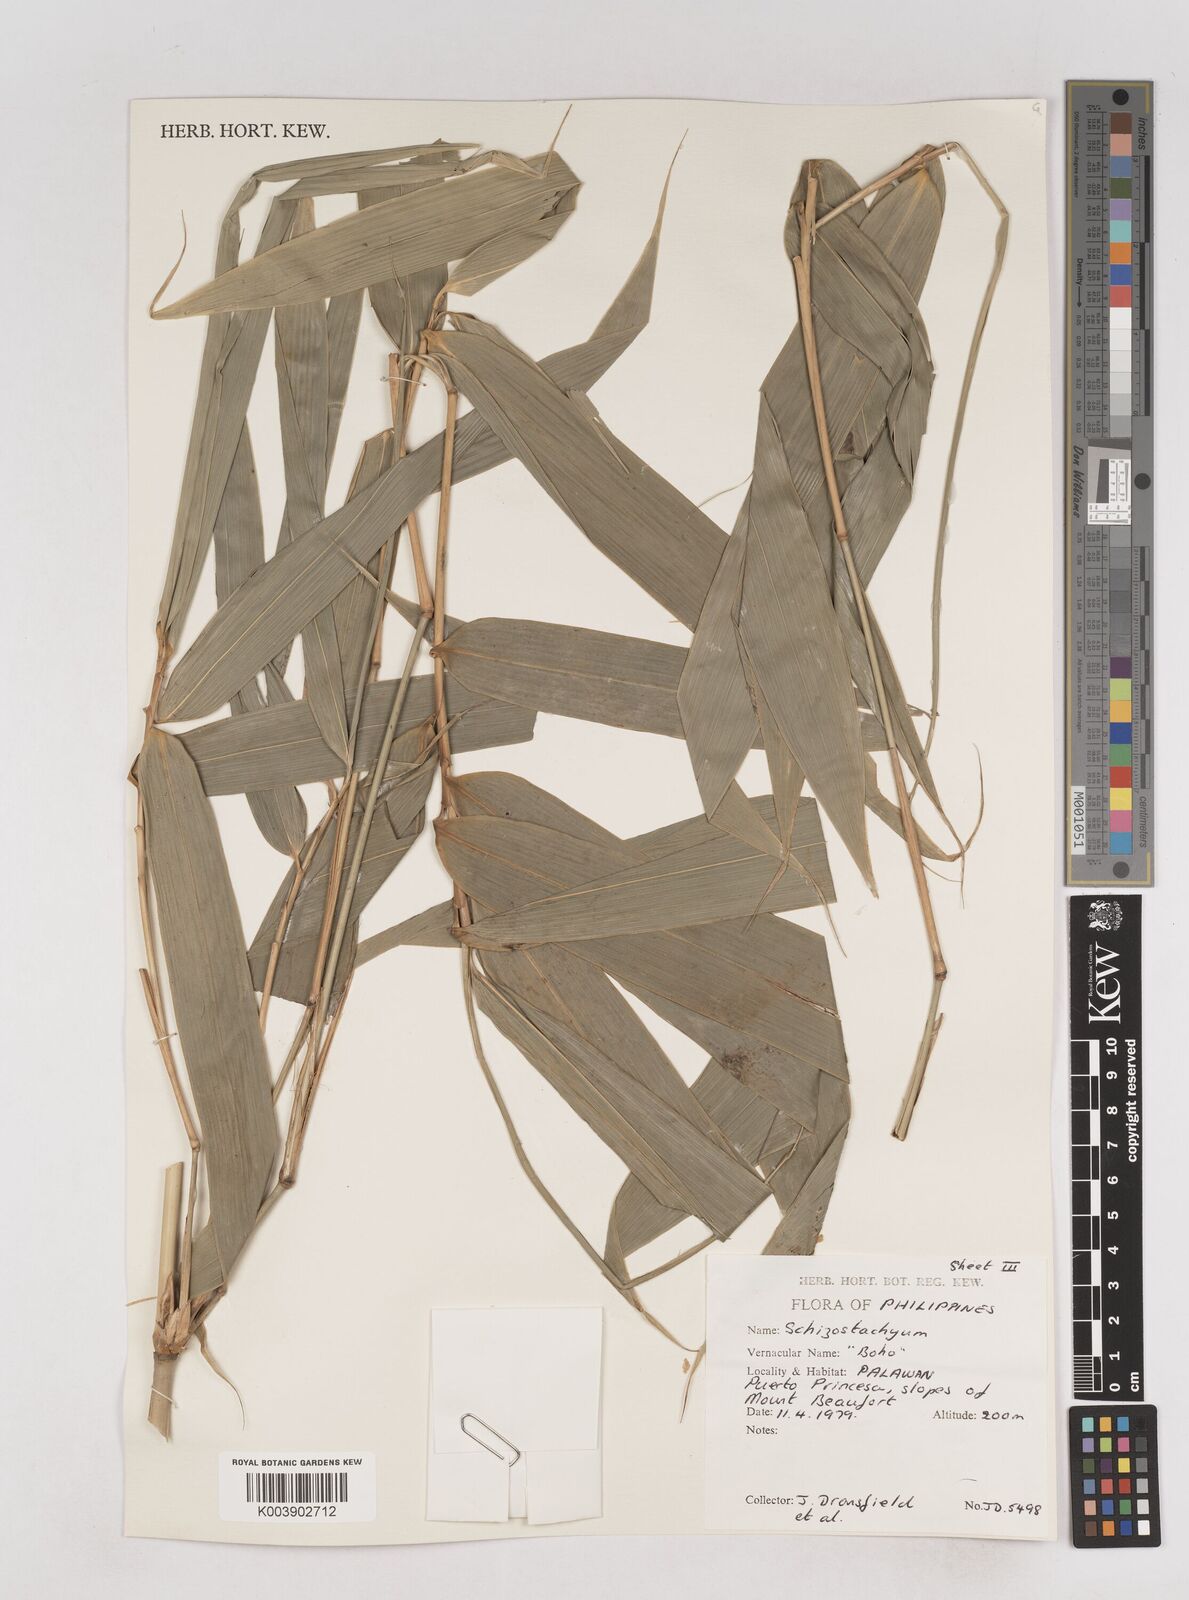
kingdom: Plantae
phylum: Tracheophyta
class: Liliopsida
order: Poales
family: Poaceae
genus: Schizostachyum
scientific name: Schizostachyum
